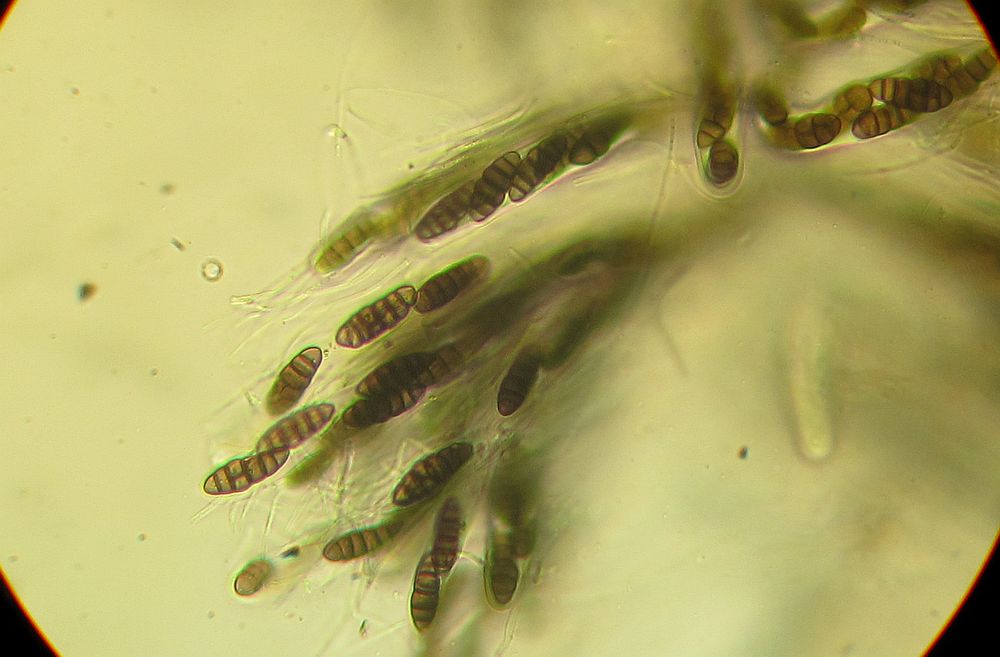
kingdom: Fungi
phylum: Ascomycota
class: Dothideomycetes
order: Pleosporales
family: Lophiostomataceae
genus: Lophiostoma
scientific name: Lophiostoma compressum
